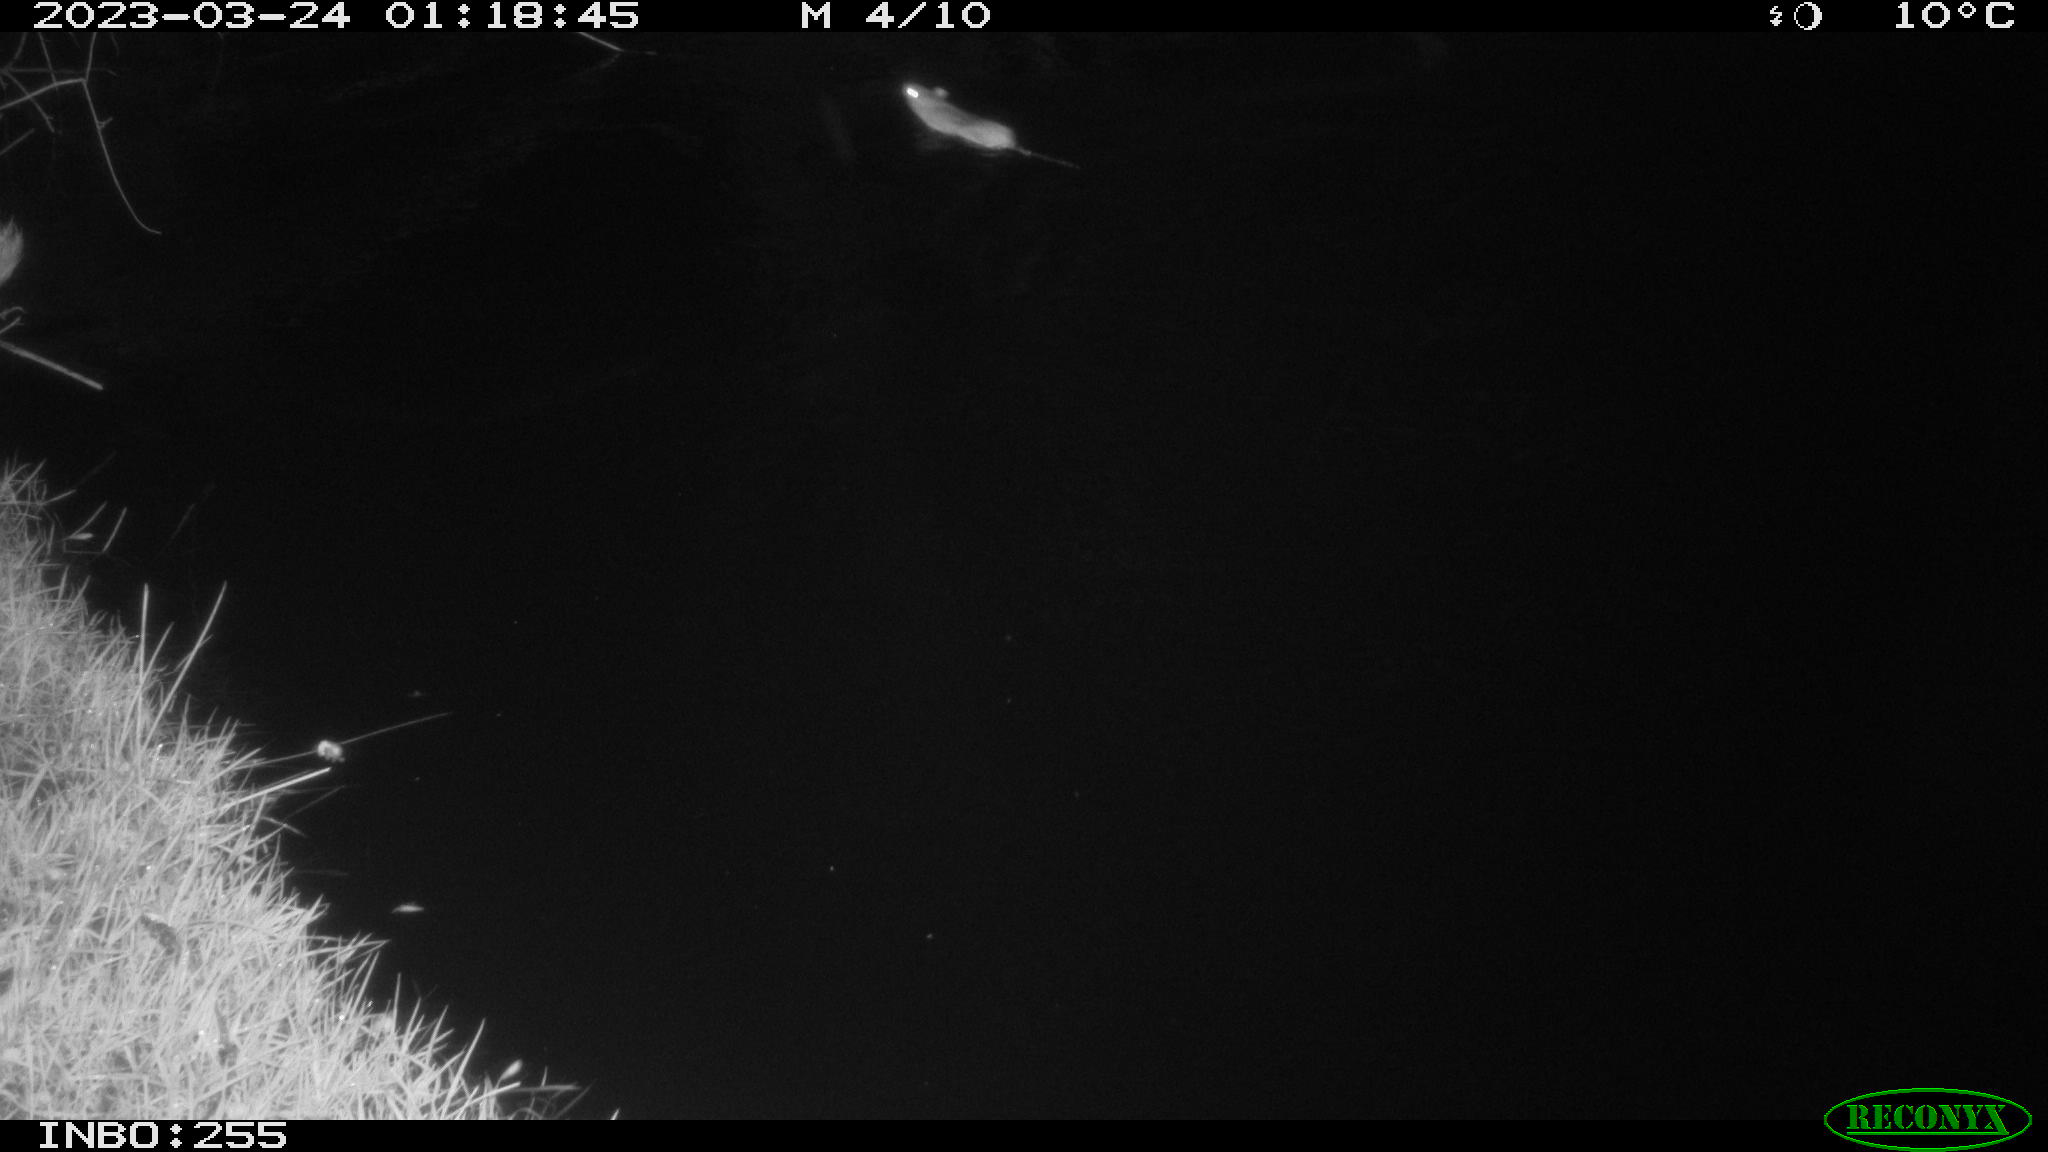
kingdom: Animalia
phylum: Chordata
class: Mammalia
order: Rodentia
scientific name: Rodentia
